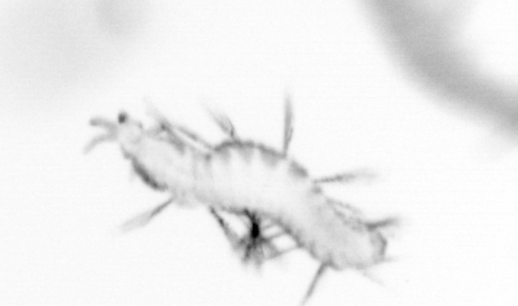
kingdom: Animalia
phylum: Annelida
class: Polychaeta
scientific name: Polychaeta
